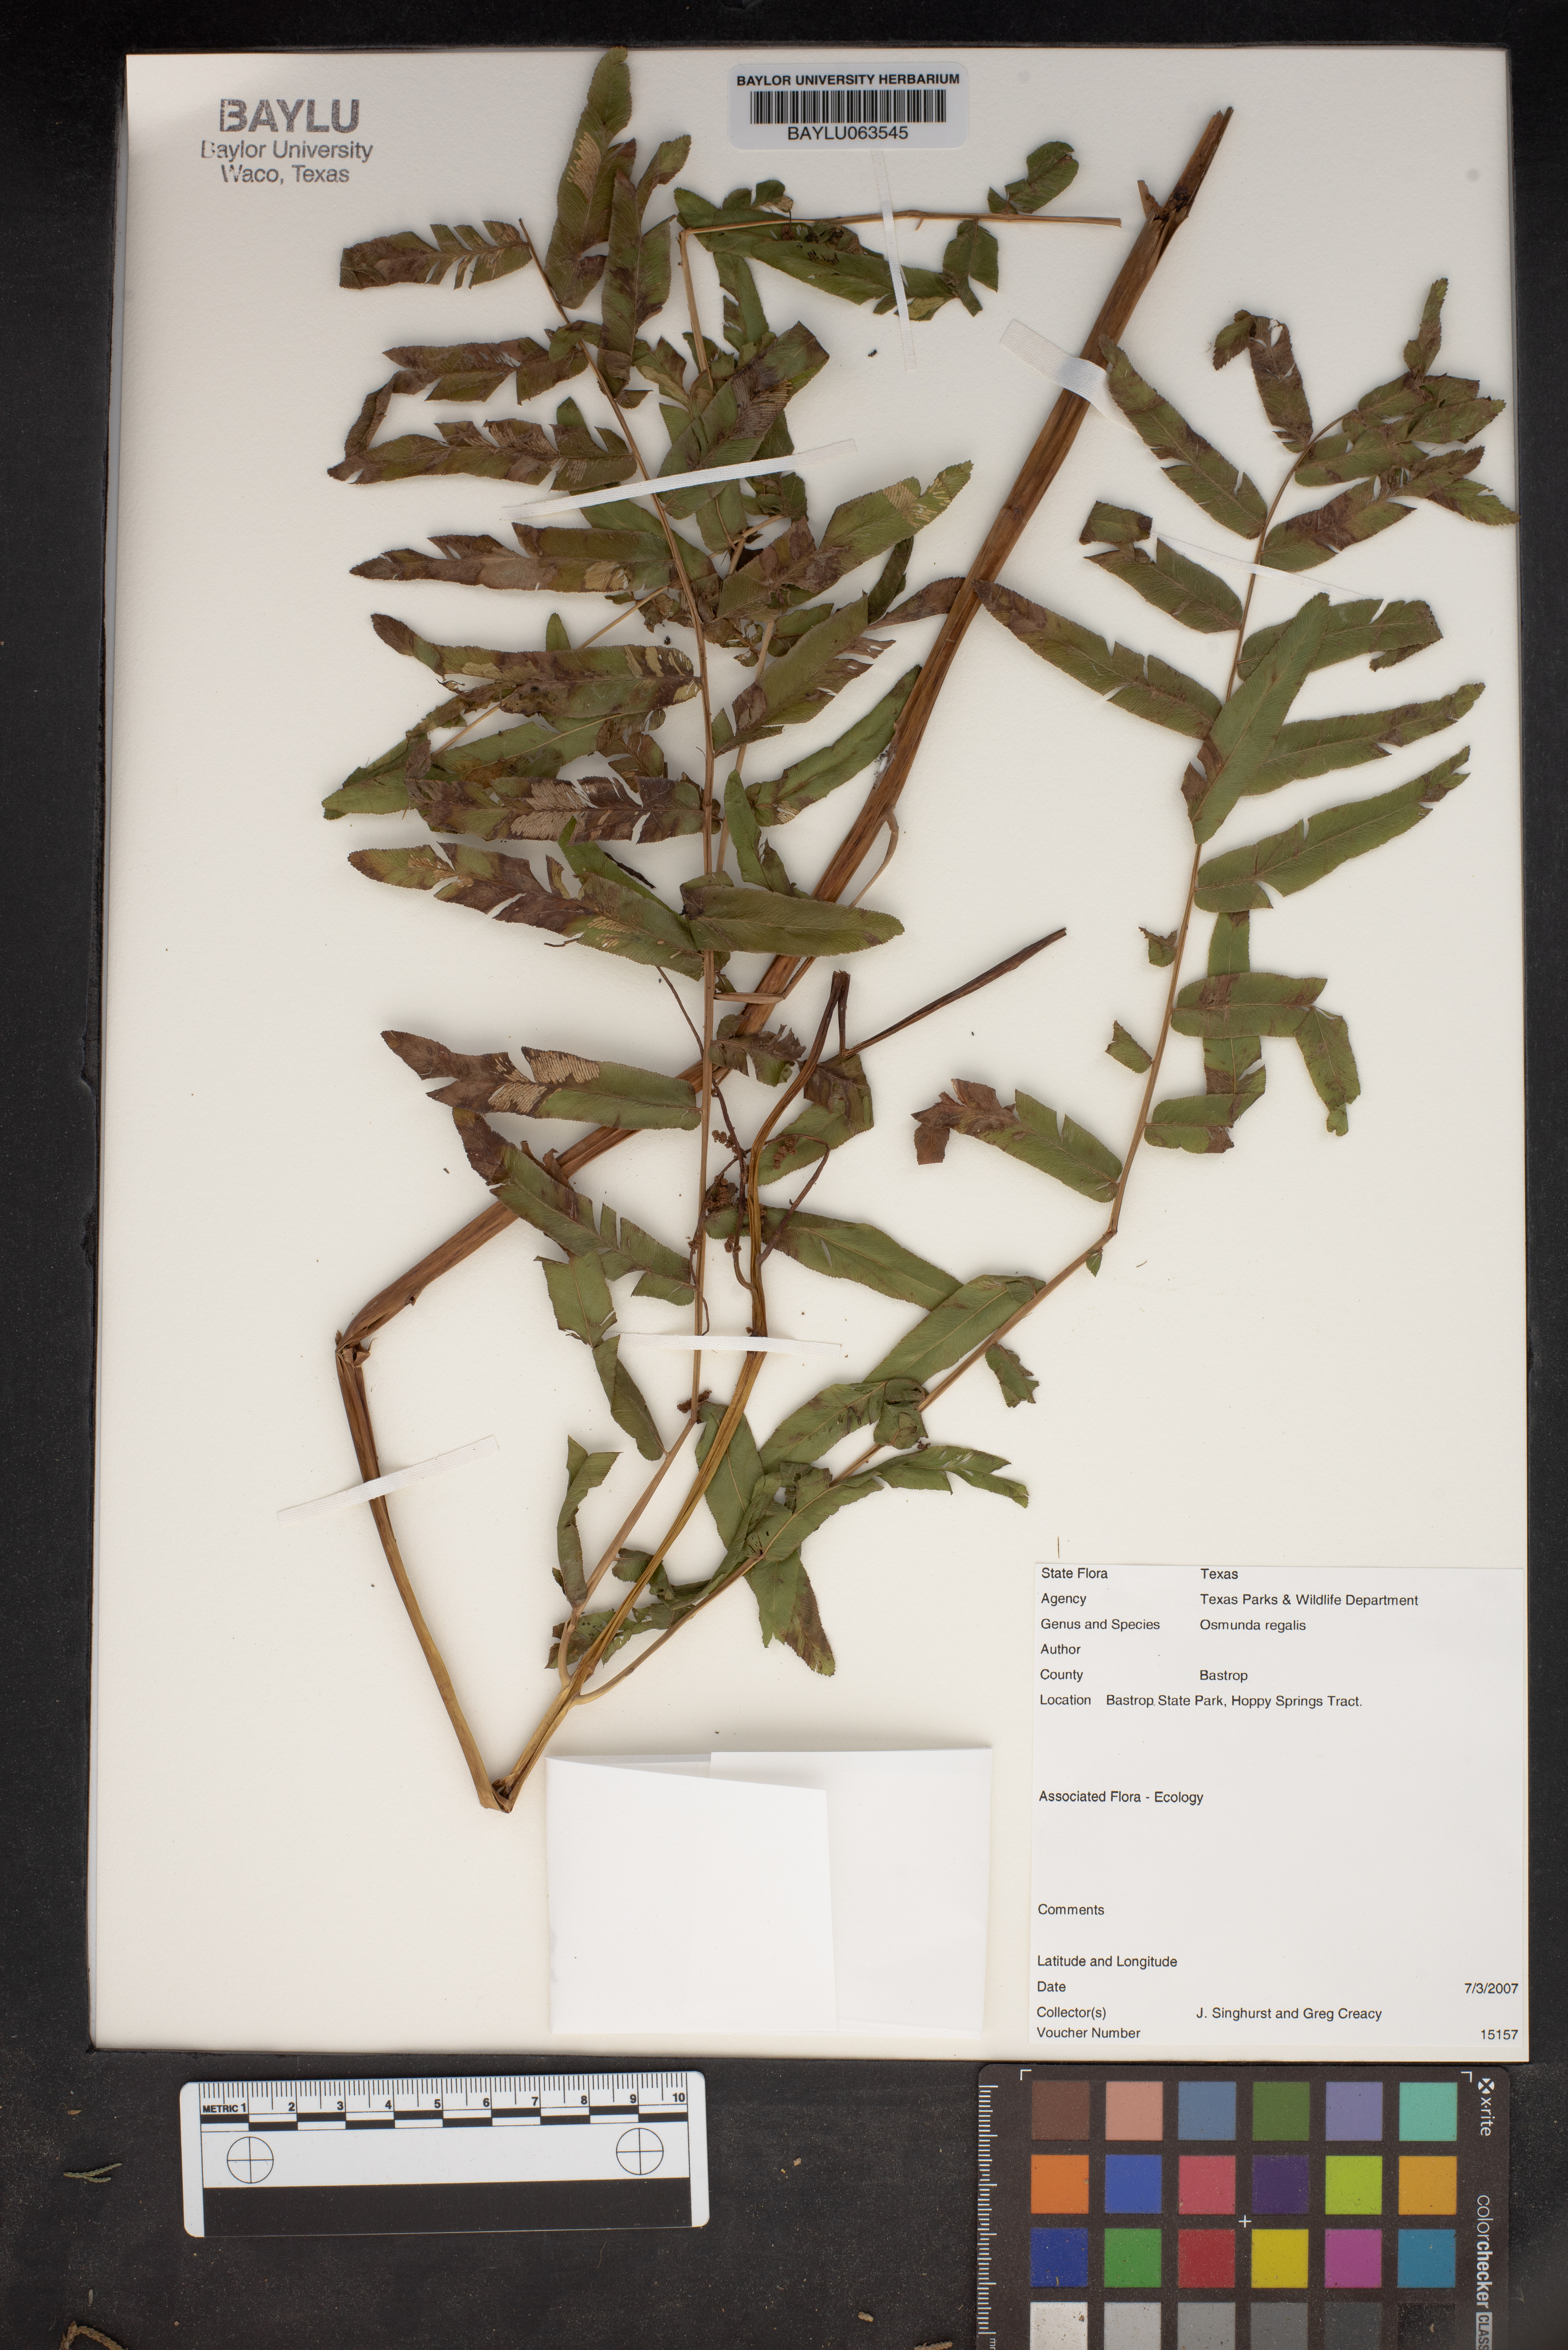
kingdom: Plantae
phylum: Tracheophyta
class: Polypodiopsida
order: Osmundales
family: Osmundaceae
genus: Osmunda
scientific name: Osmunda regalis
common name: Royal fern
